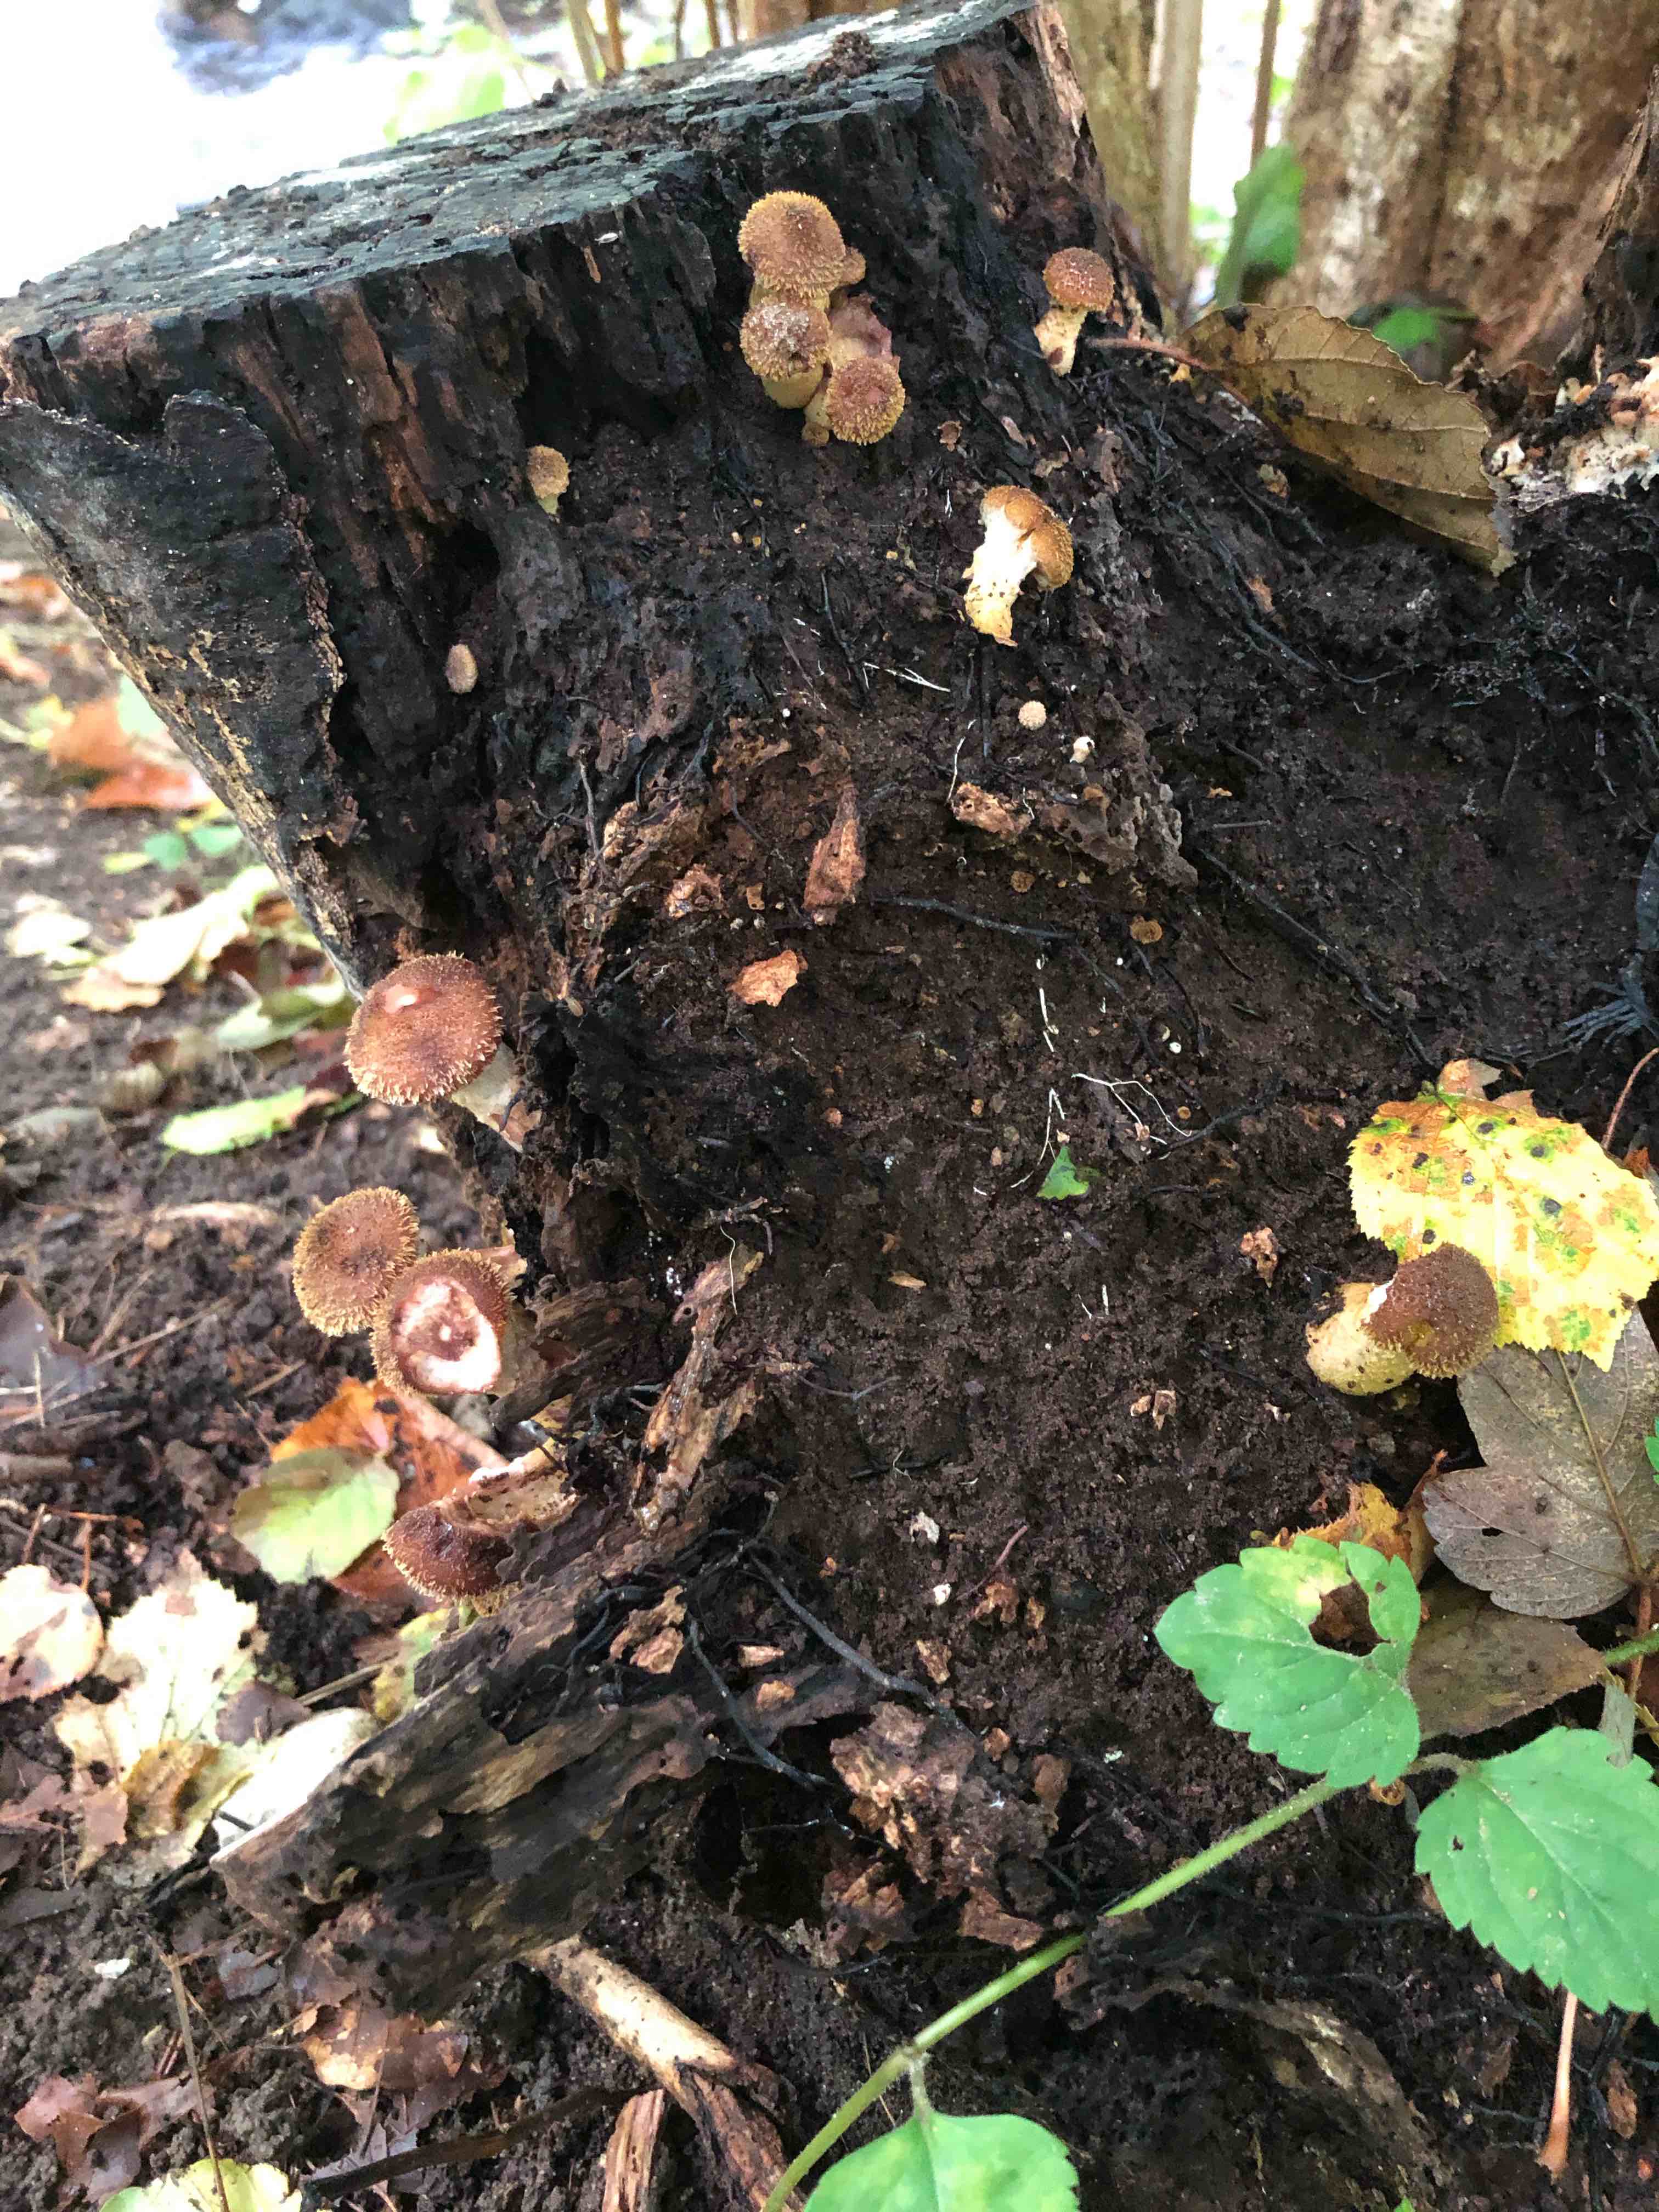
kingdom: Fungi
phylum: Basidiomycota
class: Agaricomycetes
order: Agaricales
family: Physalacriaceae
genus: Armillaria
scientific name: Armillaria lutea
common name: køllestokket honningsvamp
